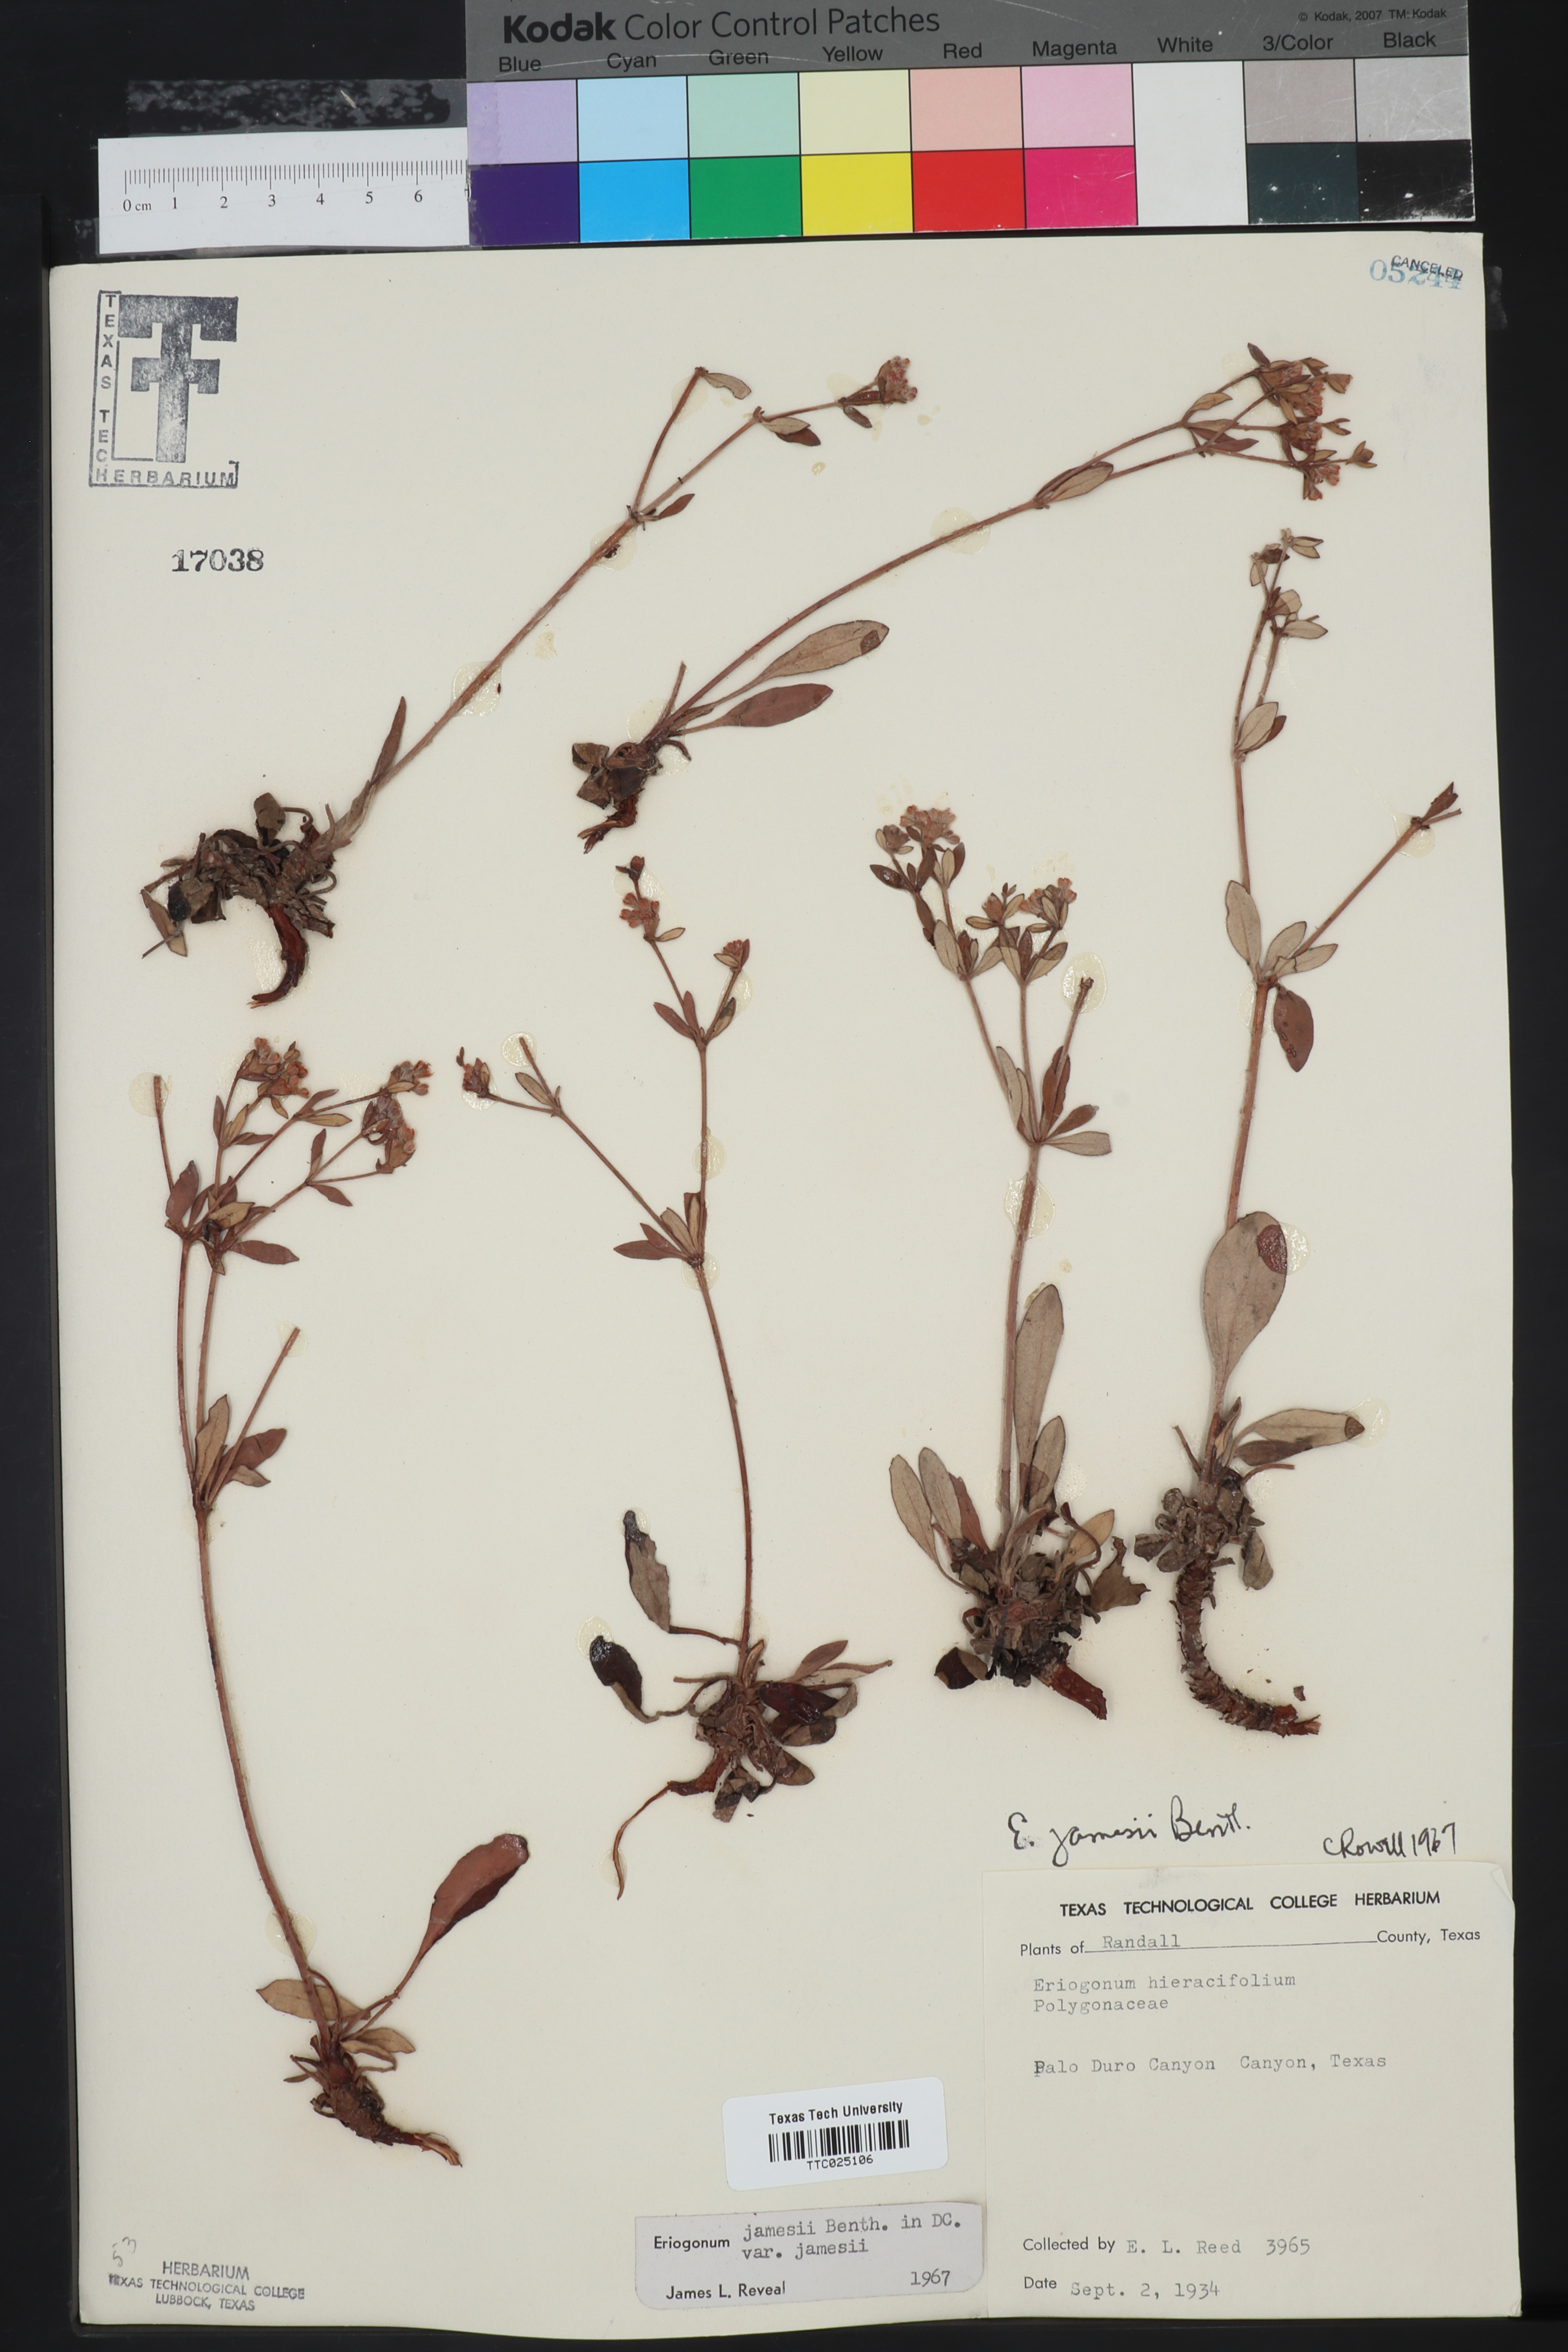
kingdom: Plantae
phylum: Tracheophyta
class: Magnoliopsida
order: Caryophyllales
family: Polygonaceae
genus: Eriogonum
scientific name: Eriogonum jamesii
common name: Antelope-sage
